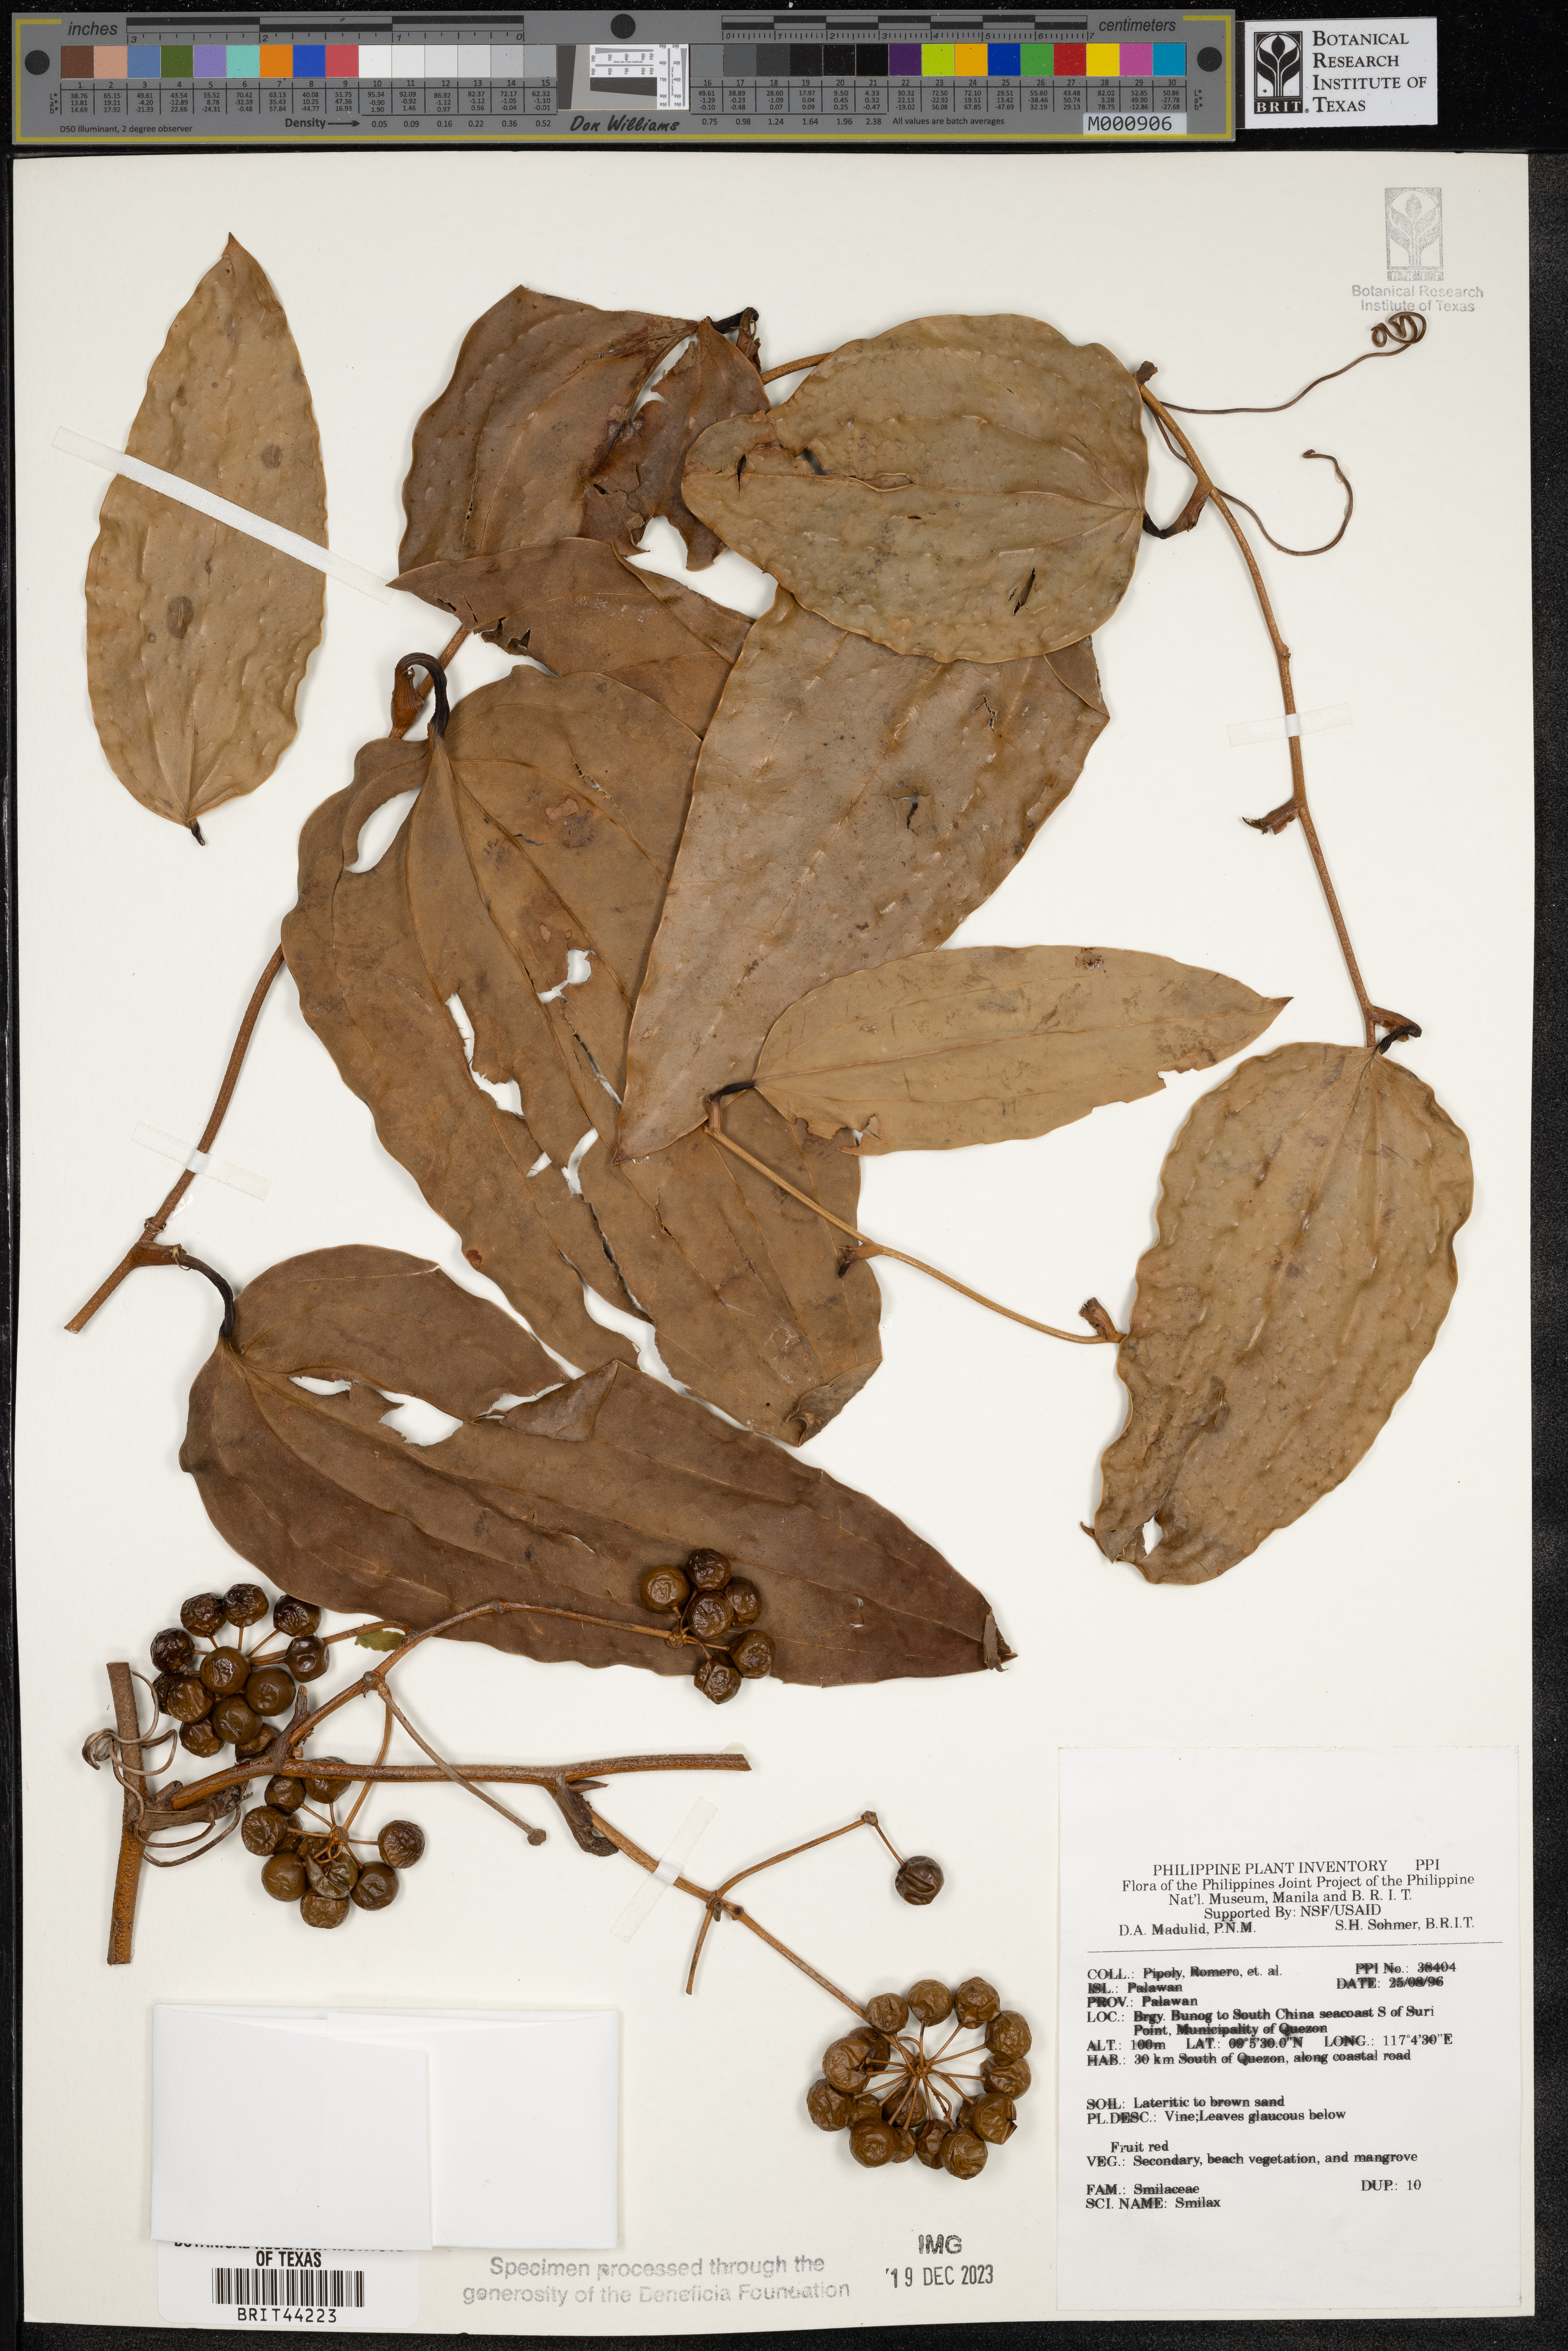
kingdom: Plantae
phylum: Tracheophyta
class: Liliopsida
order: Liliales
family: Smilacaceae
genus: Smilax
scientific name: Smilax
